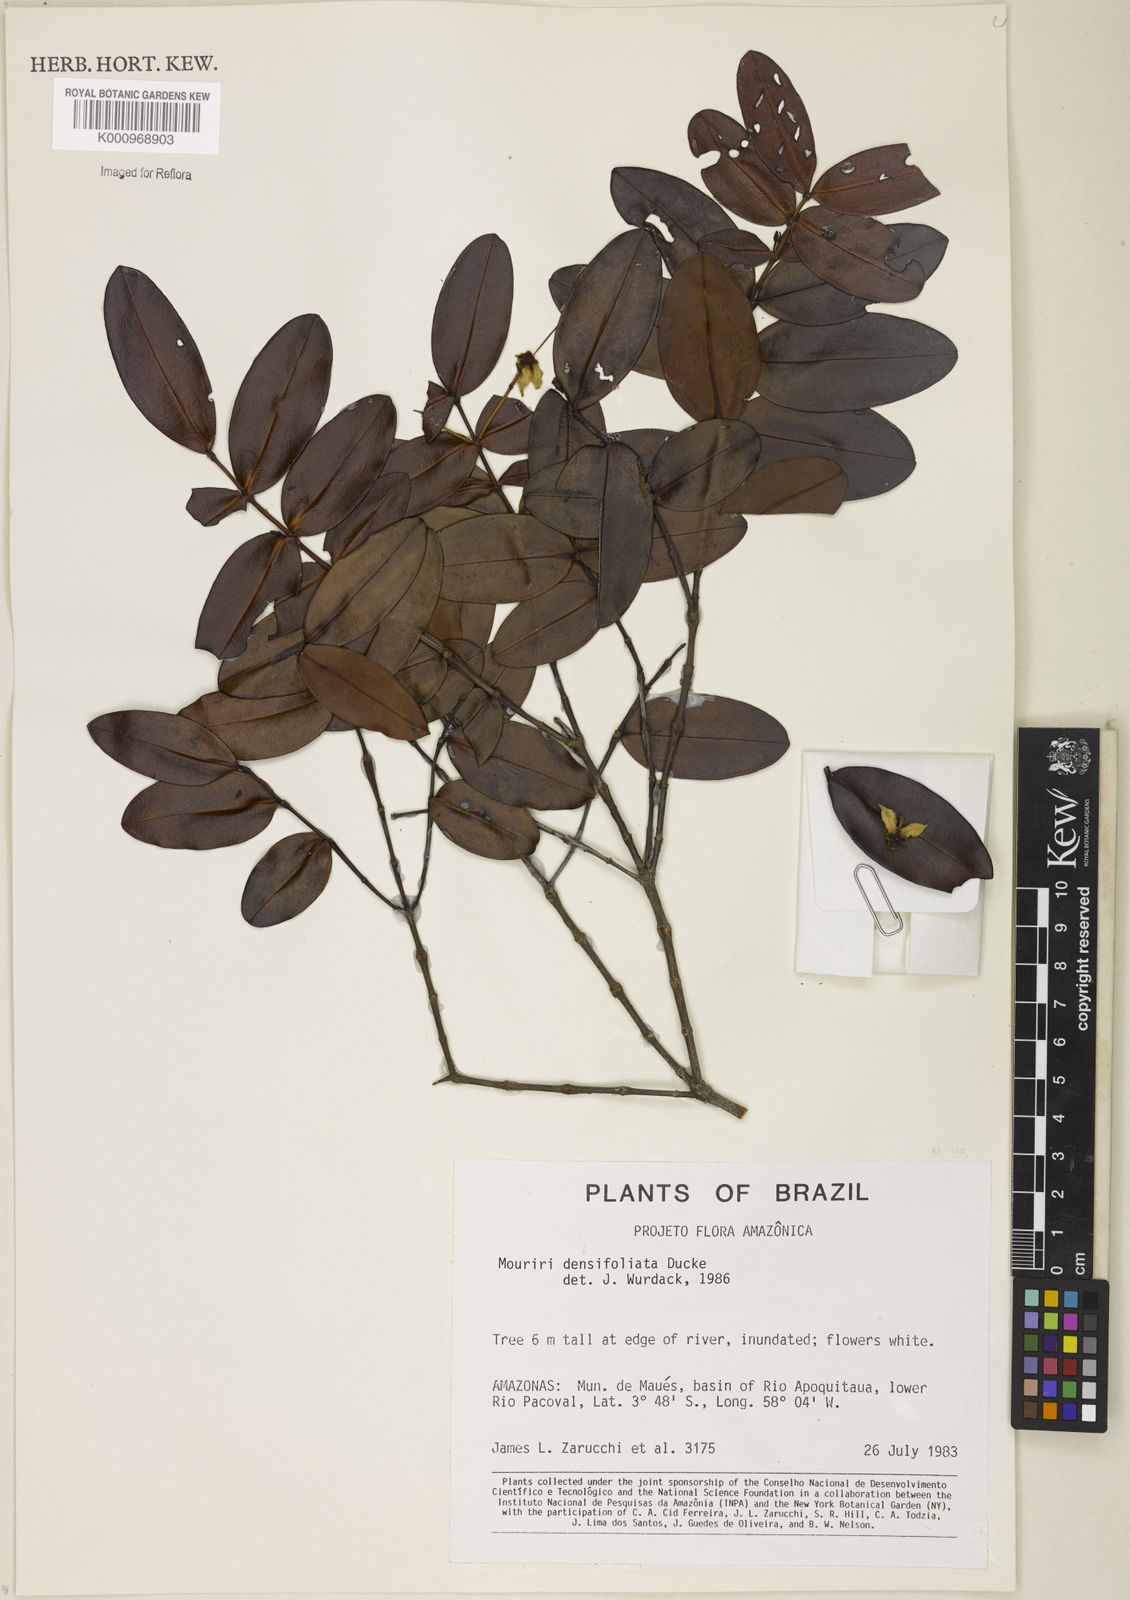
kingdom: Plantae
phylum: Tracheophyta
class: Magnoliopsida
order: Myrtales
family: Melastomataceae
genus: Mouriri
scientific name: Mouriri densifoliata
